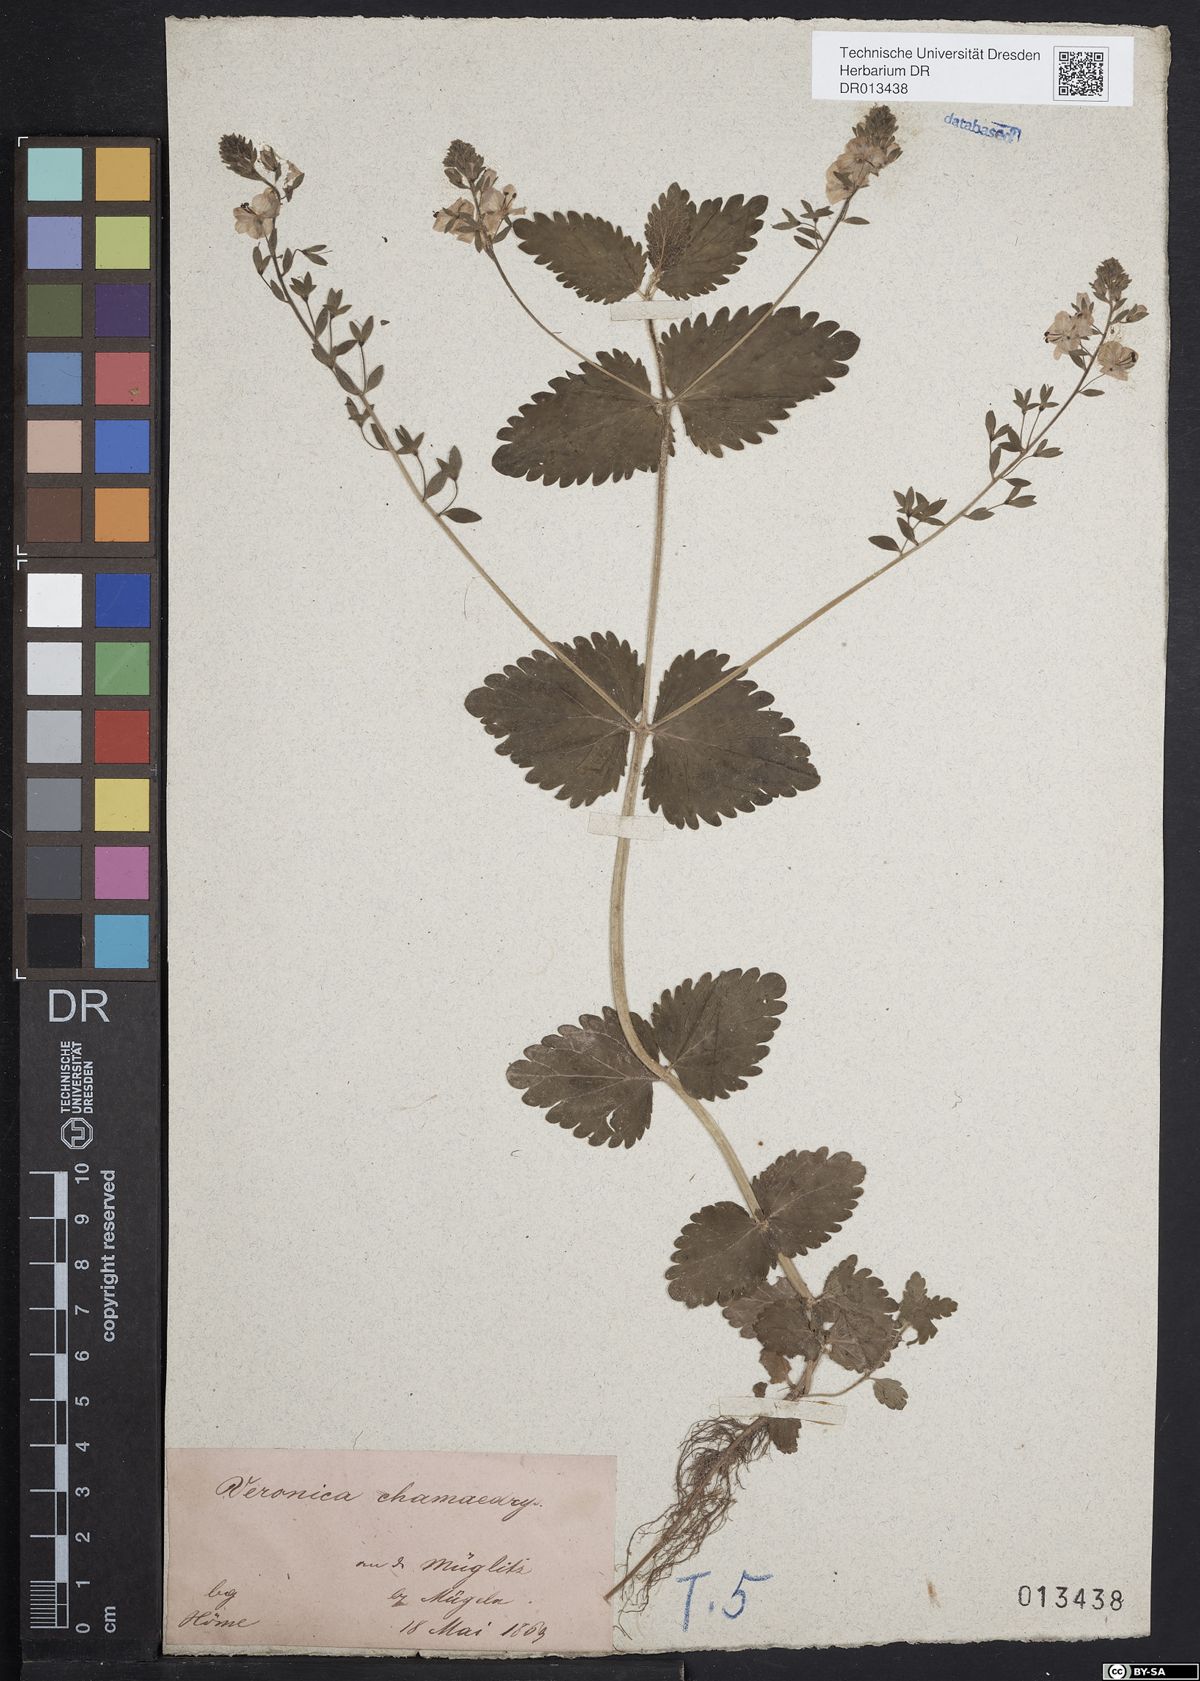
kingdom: Plantae
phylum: Tracheophyta
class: Magnoliopsida
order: Lamiales
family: Plantaginaceae
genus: Veronica
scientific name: Veronica chamaedrys
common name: Germander speedwell
